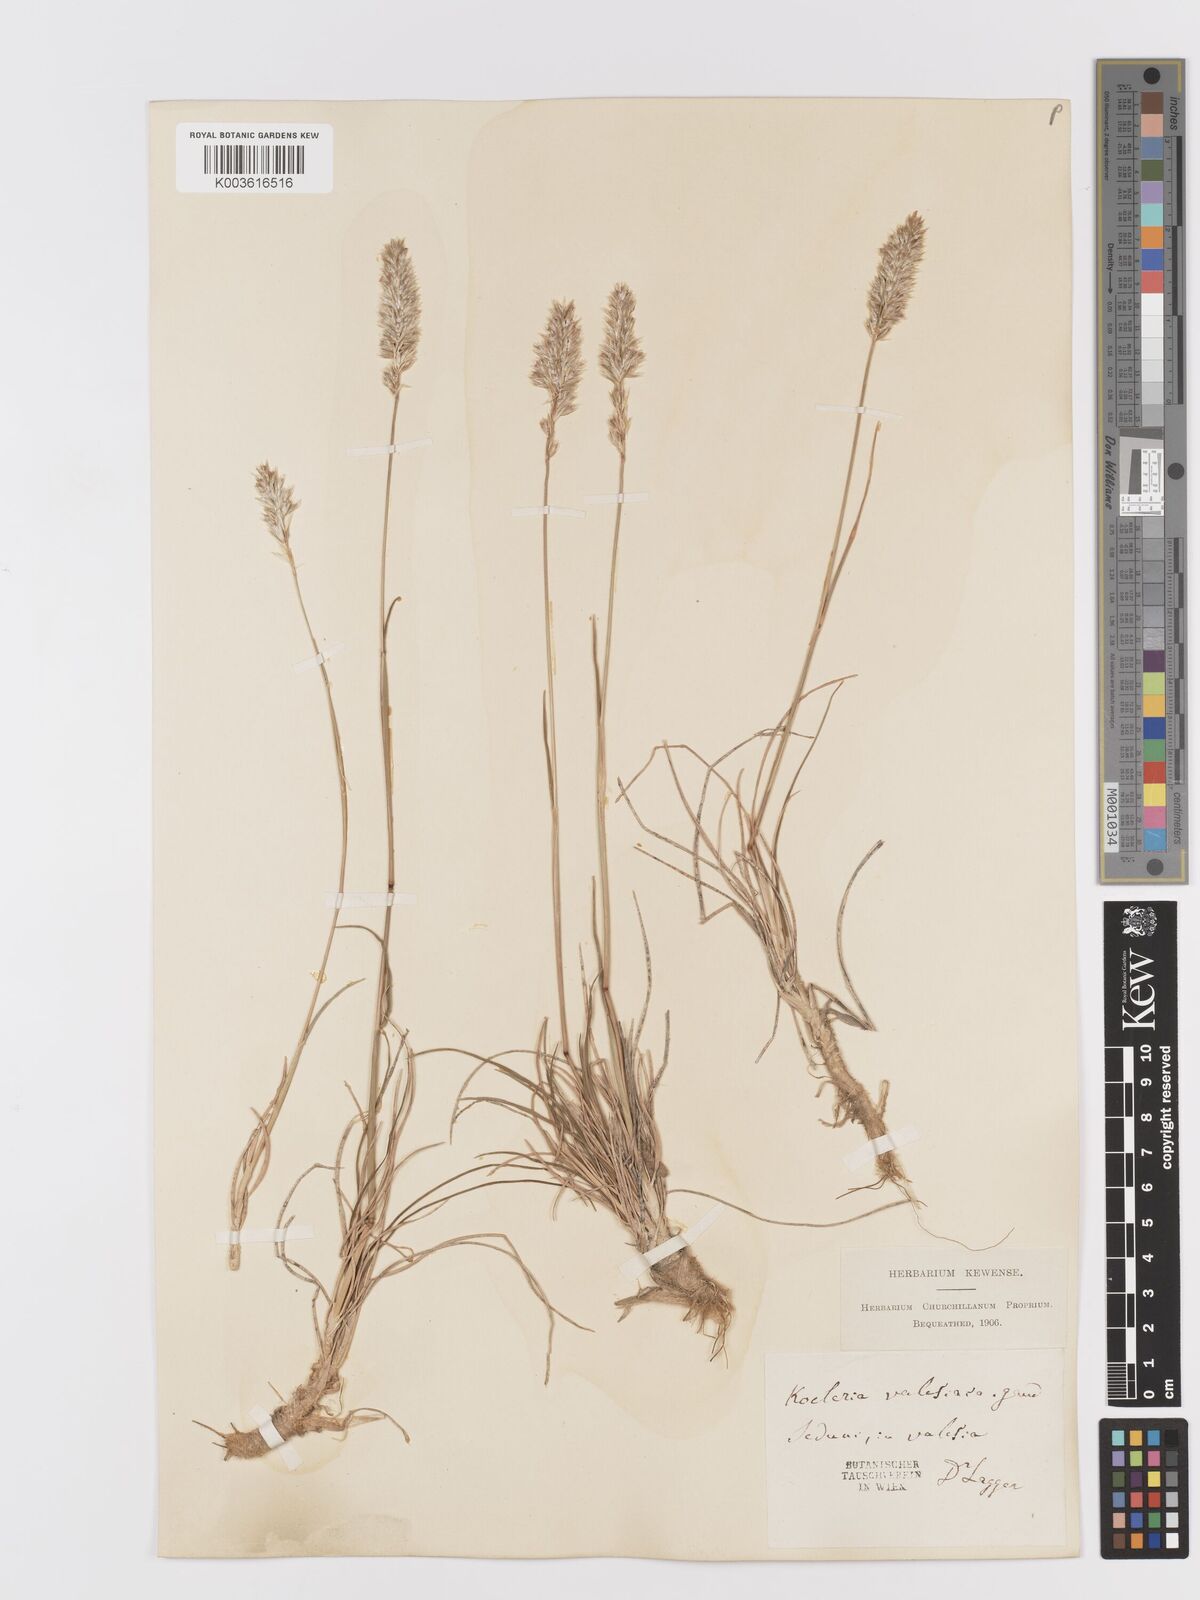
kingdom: Plantae
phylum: Tracheophyta
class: Liliopsida
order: Poales
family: Poaceae
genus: Koeleria
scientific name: Koeleria vallesiana
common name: Somerset hair-grass
